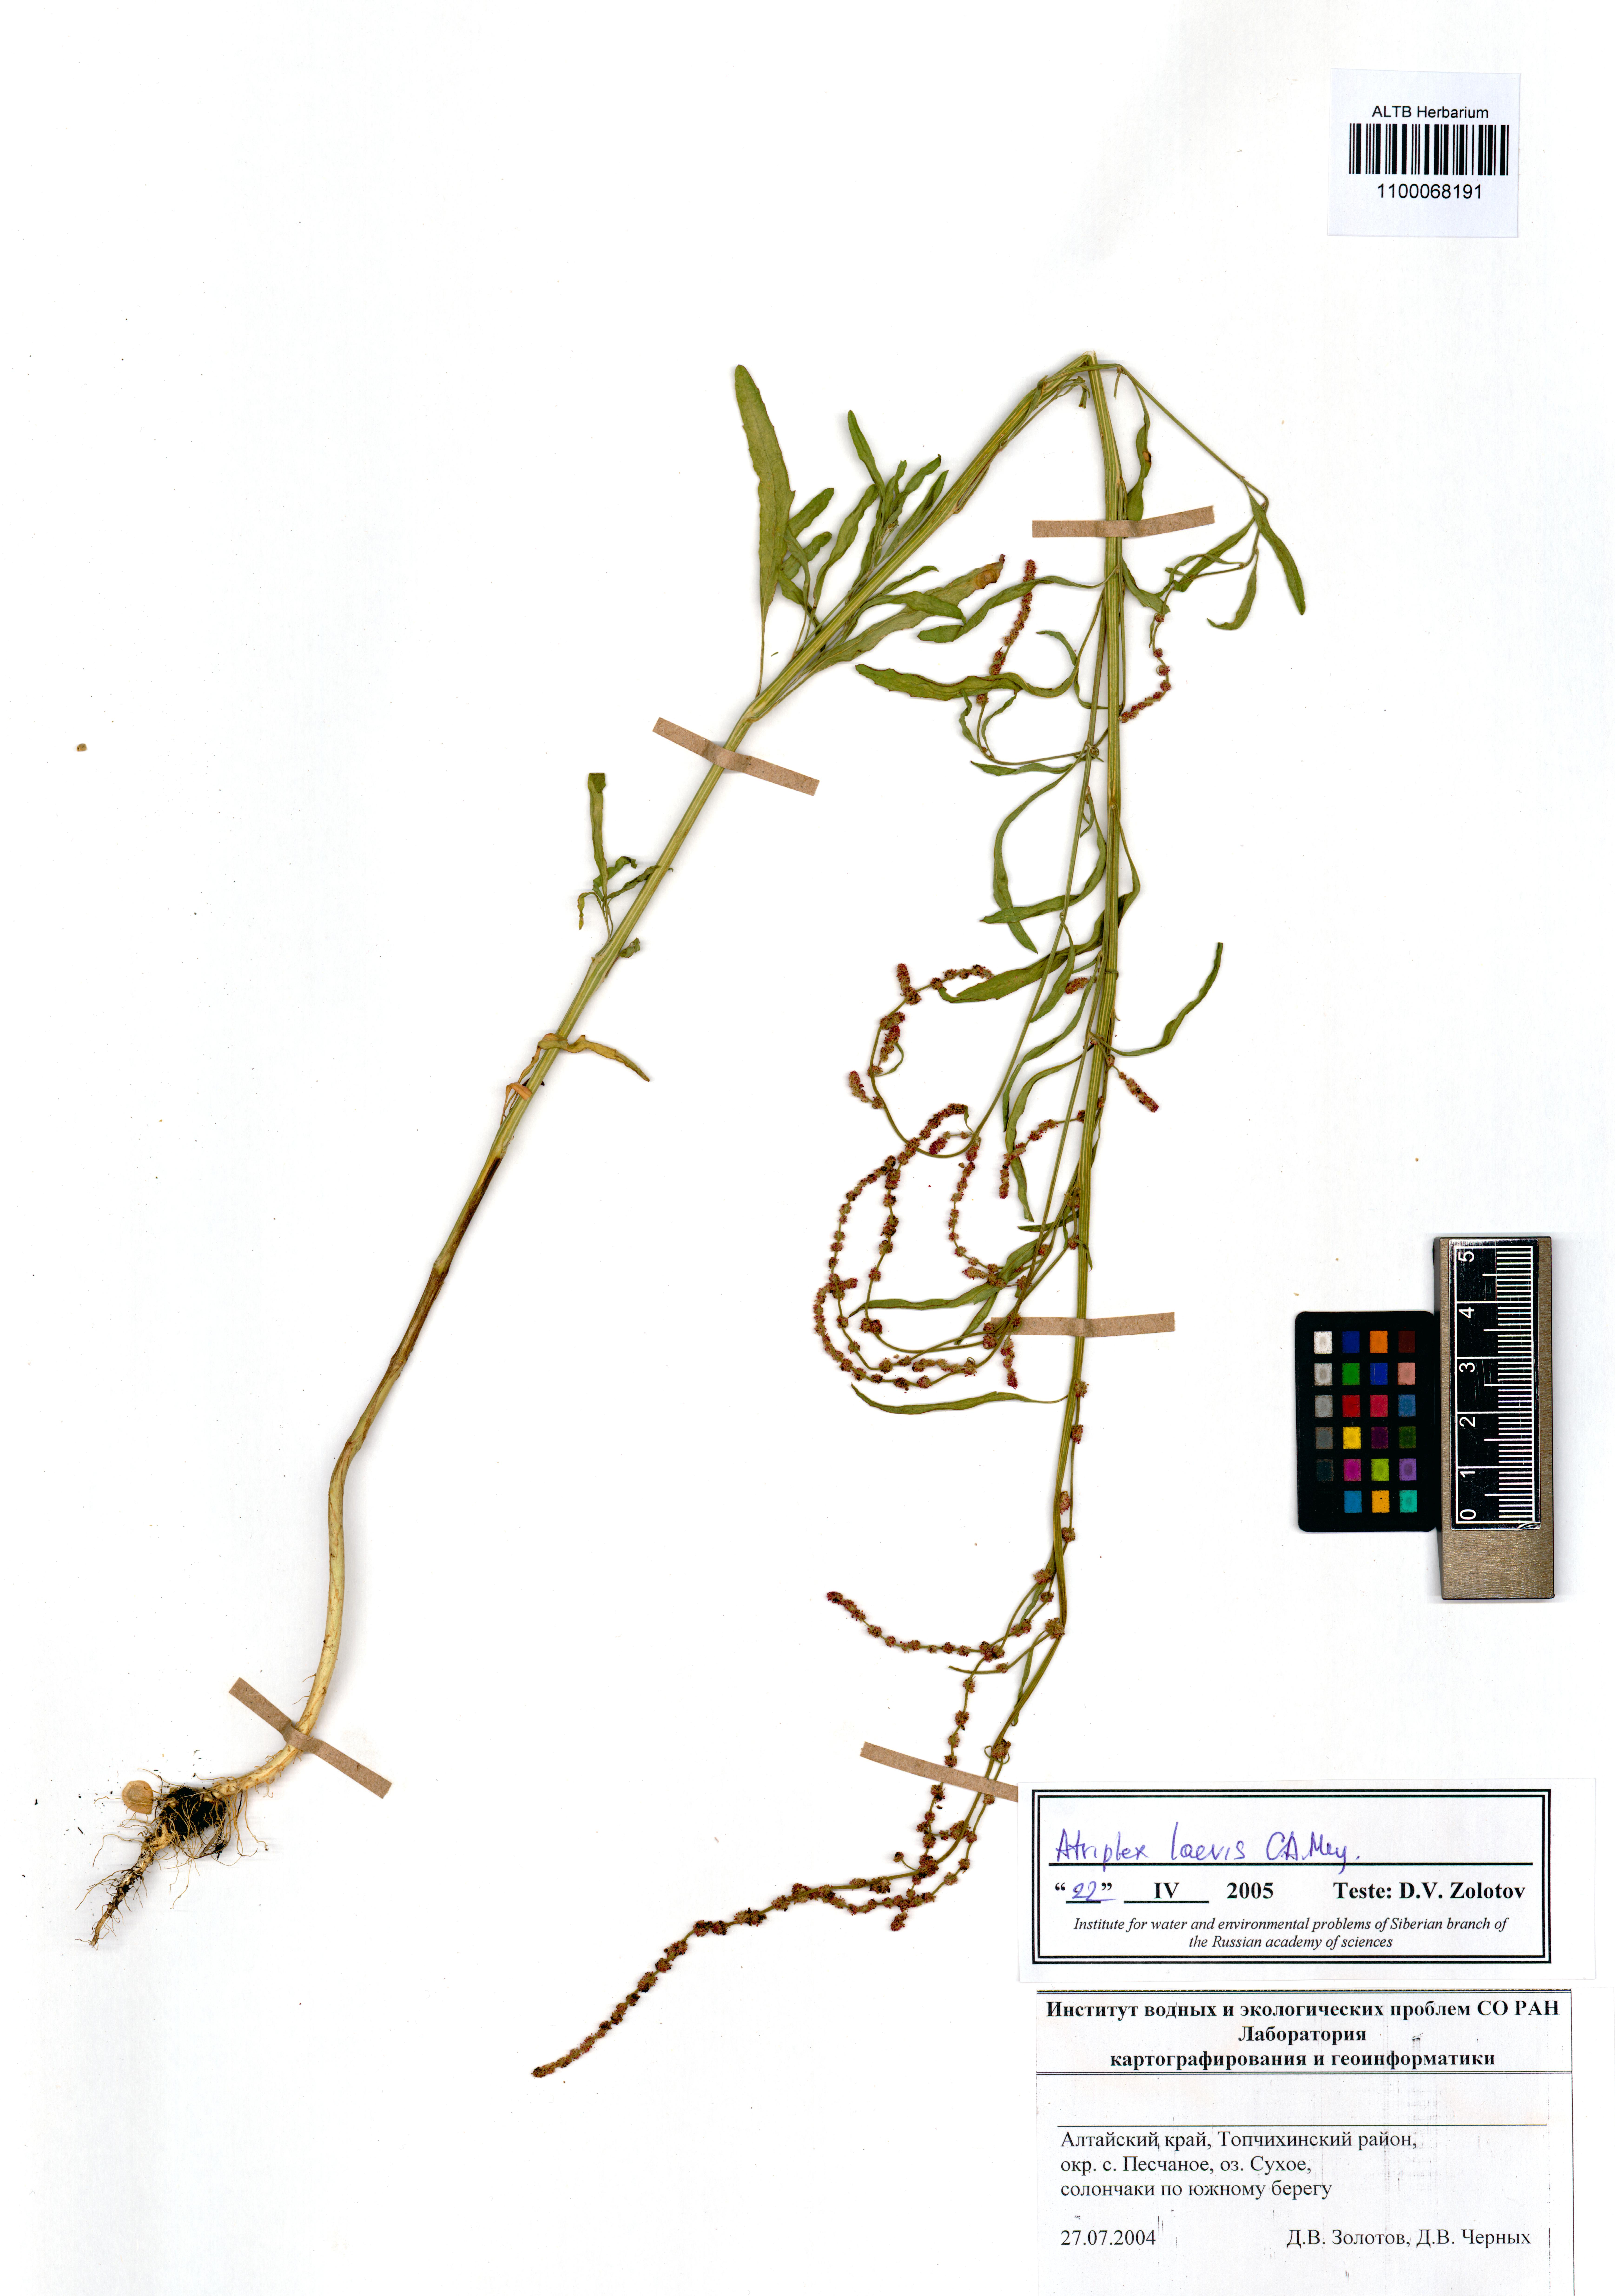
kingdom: Plantae
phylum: Tracheophyta
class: Magnoliopsida
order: Caryophyllales
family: Amaranthaceae
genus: Atriplex
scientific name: Atriplex laevis
